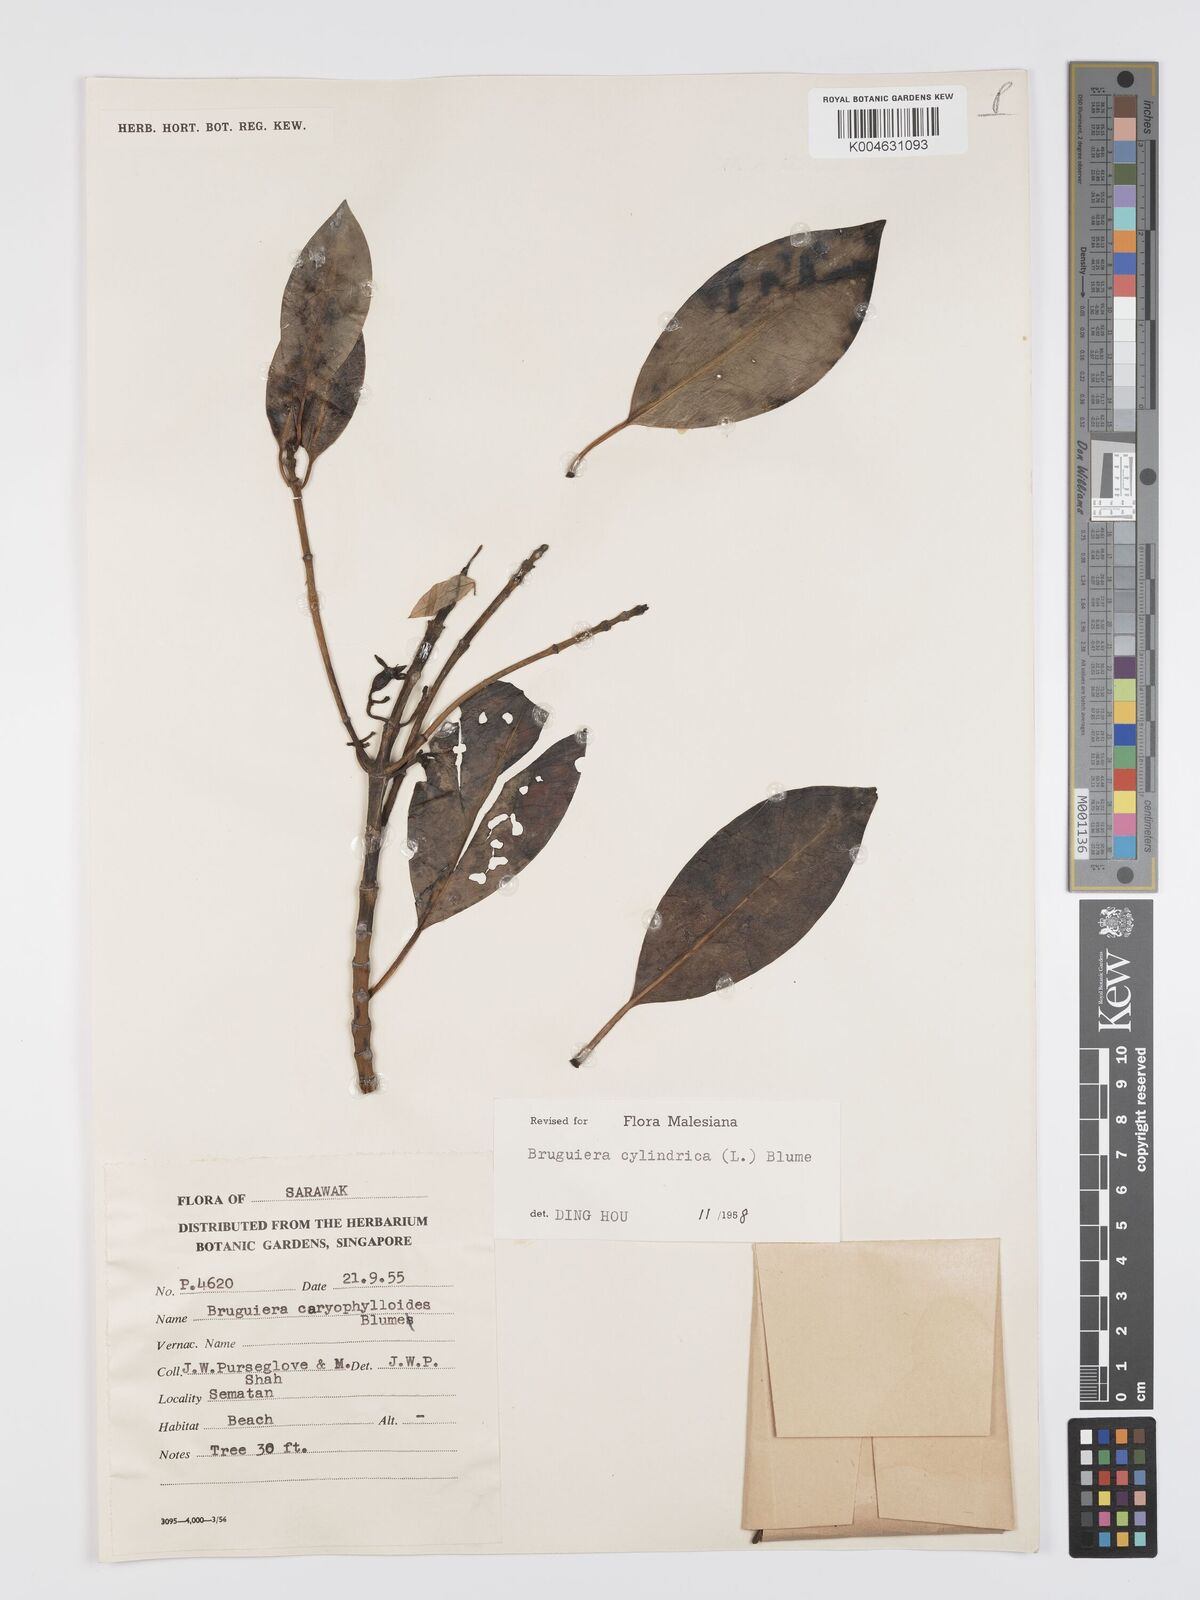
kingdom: Plantae
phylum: Tracheophyta
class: Magnoliopsida
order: Malpighiales
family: Rhizophoraceae
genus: Bruguiera
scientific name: Bruguiera cylindrica
